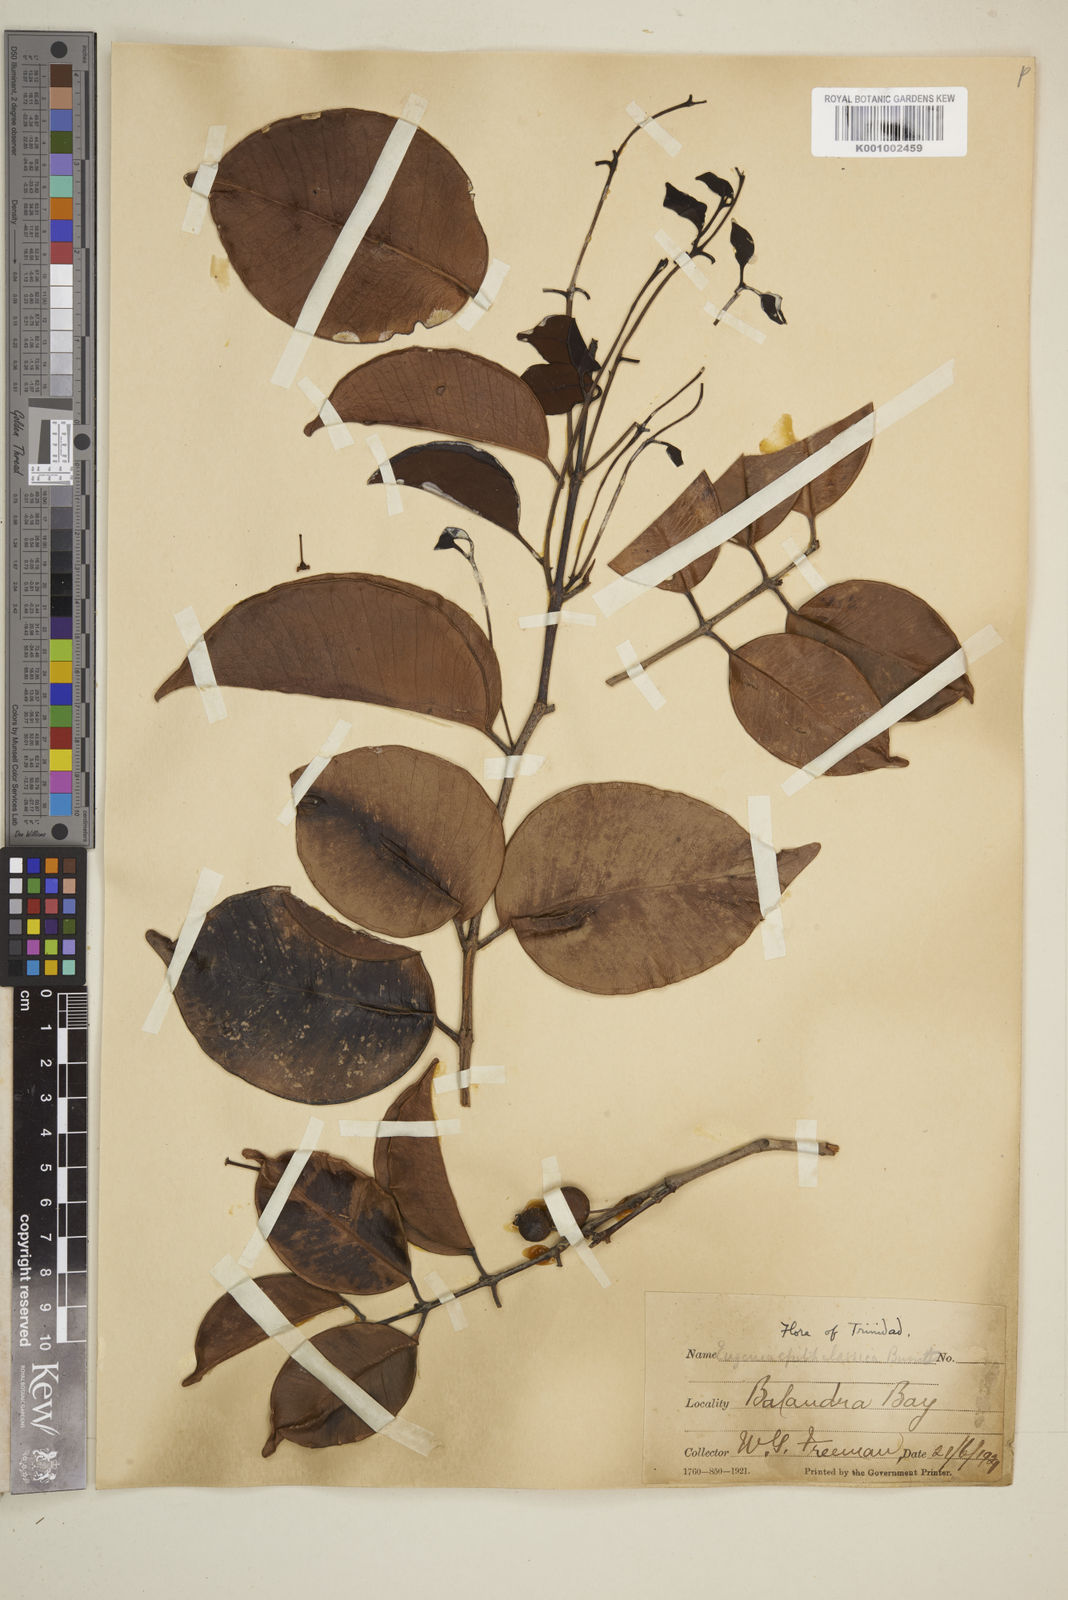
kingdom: Plantae
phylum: Tracheophyta
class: Magnoliopsida
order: Myrtales
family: Myrtaceae
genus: Eugenia
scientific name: Eugenia confusa
